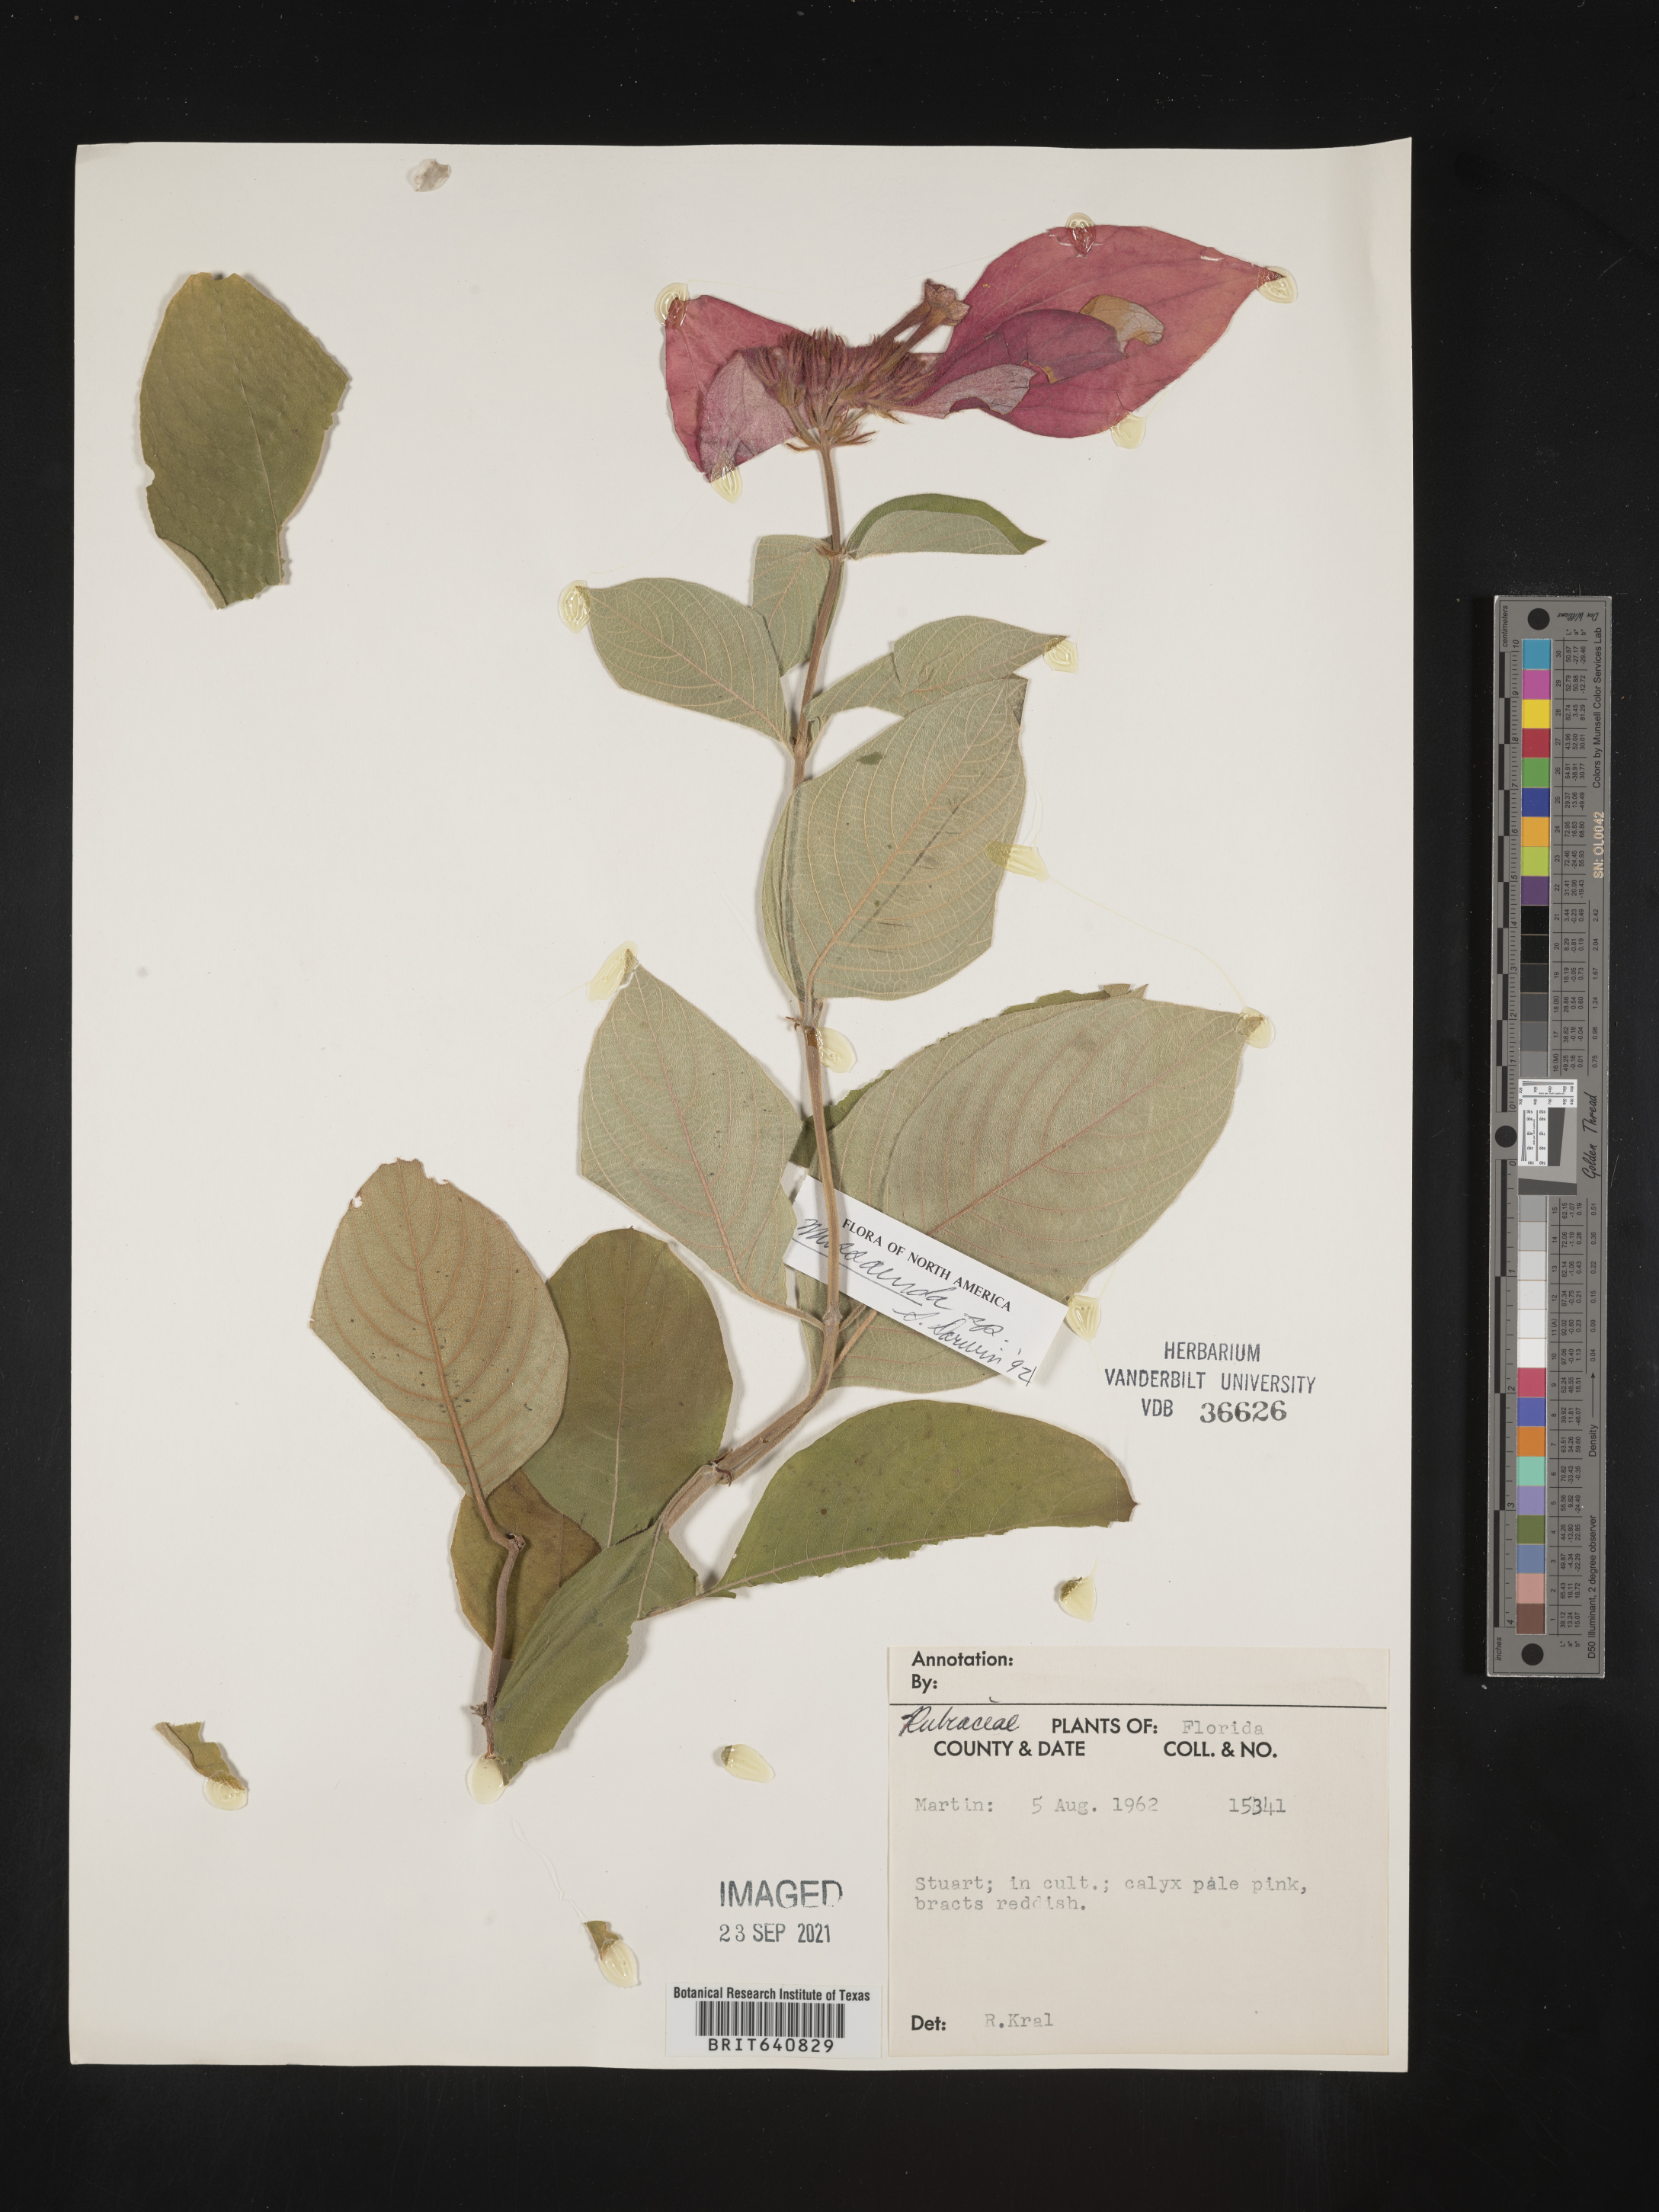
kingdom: Plantae
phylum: Tracheophyta
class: Magnoliopsida
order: Gentianales
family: Rubiaceae
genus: Mussaenda
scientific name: Mussaenda
